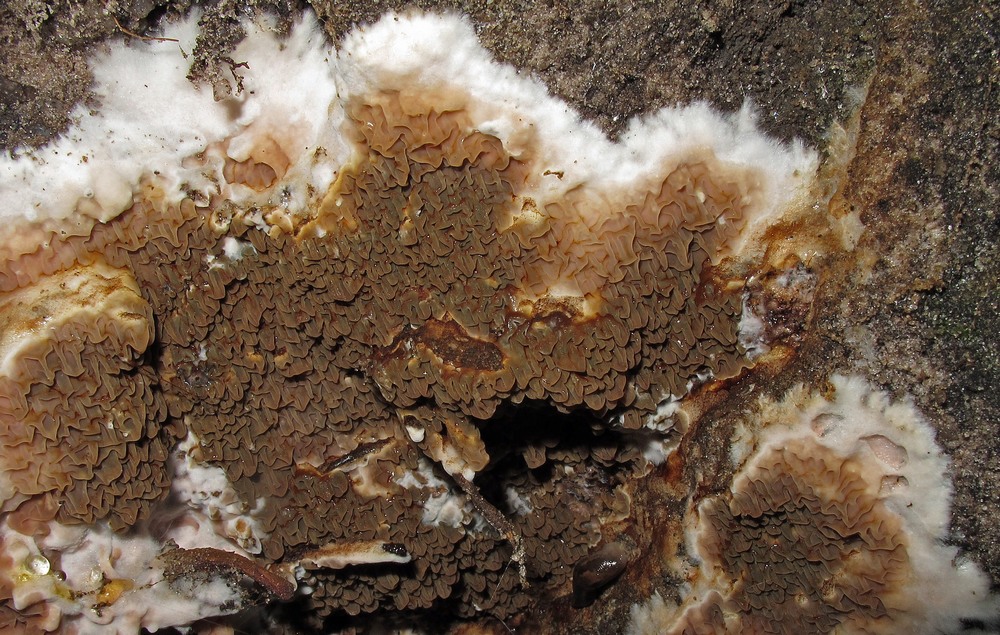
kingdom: Fungi
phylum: Basidiomycota
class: Agaricomycetes
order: Boletales
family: Serpulaceae
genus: Serpula
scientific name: Serpula himantioides
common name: tyndkødet hussvamp
